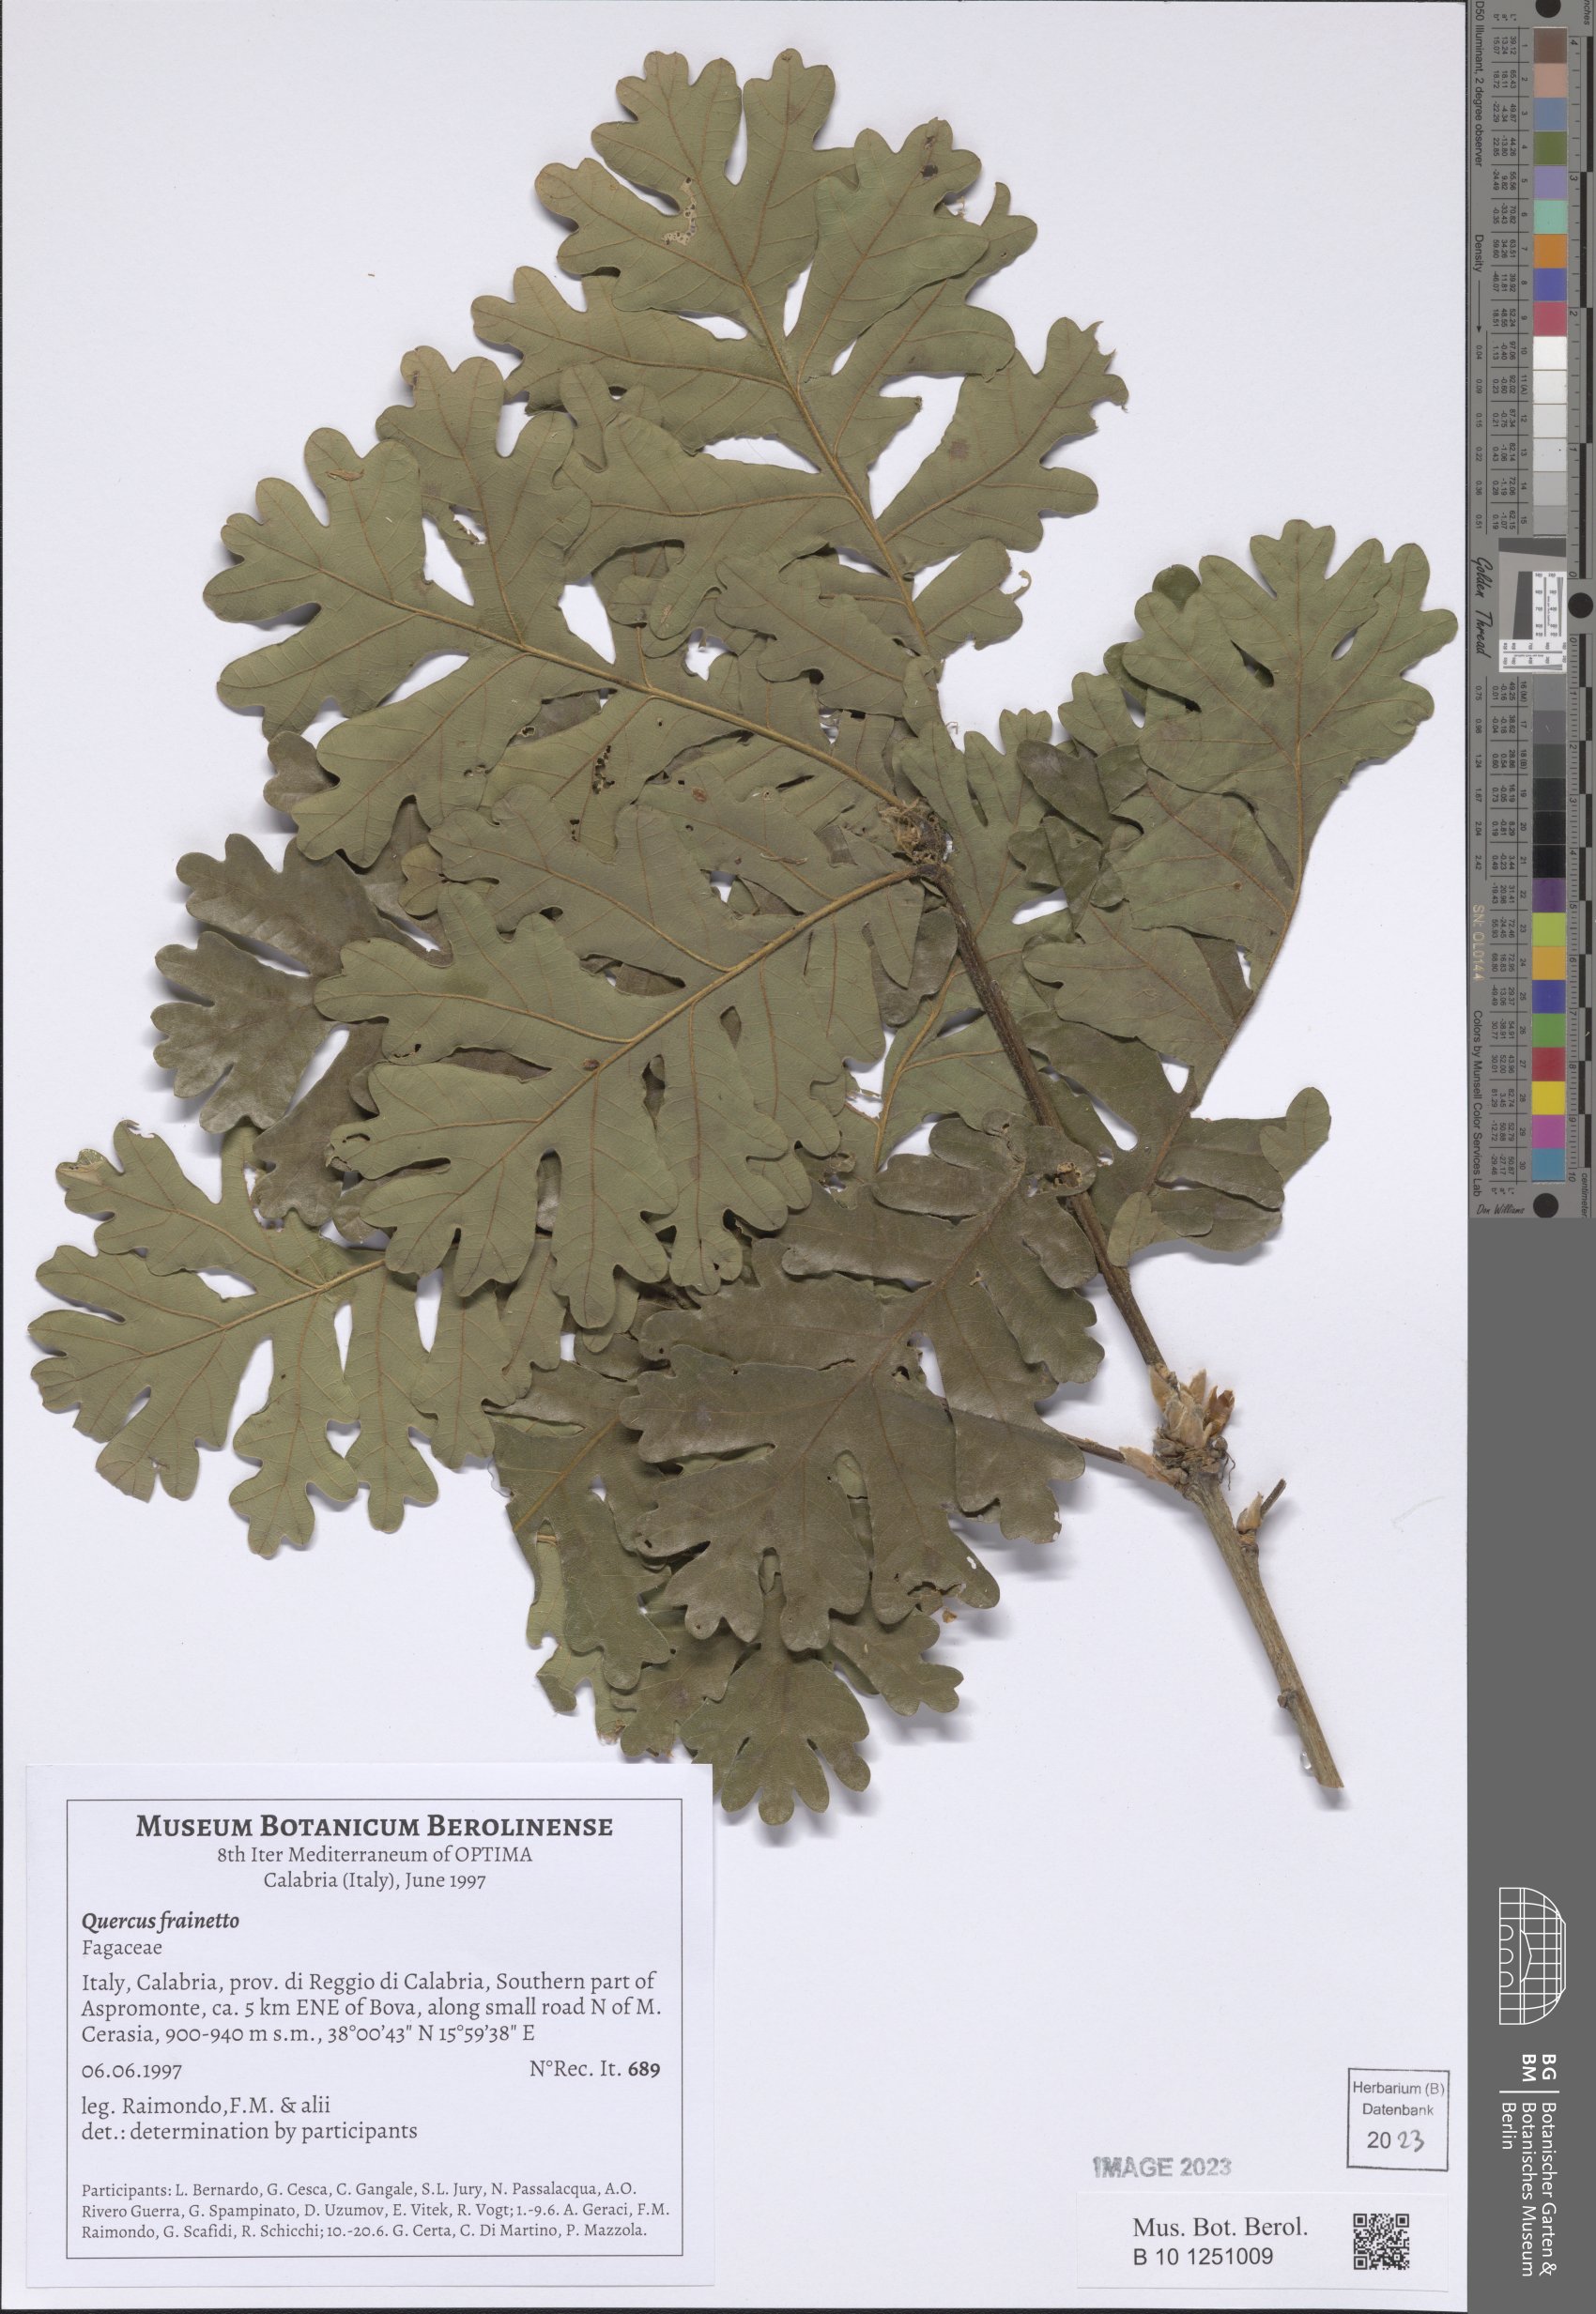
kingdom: Plantae
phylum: Tracheophyta
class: Magnoliopsida
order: Fagales
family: Fagaceae
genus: Quercus
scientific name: Quercus conferta
